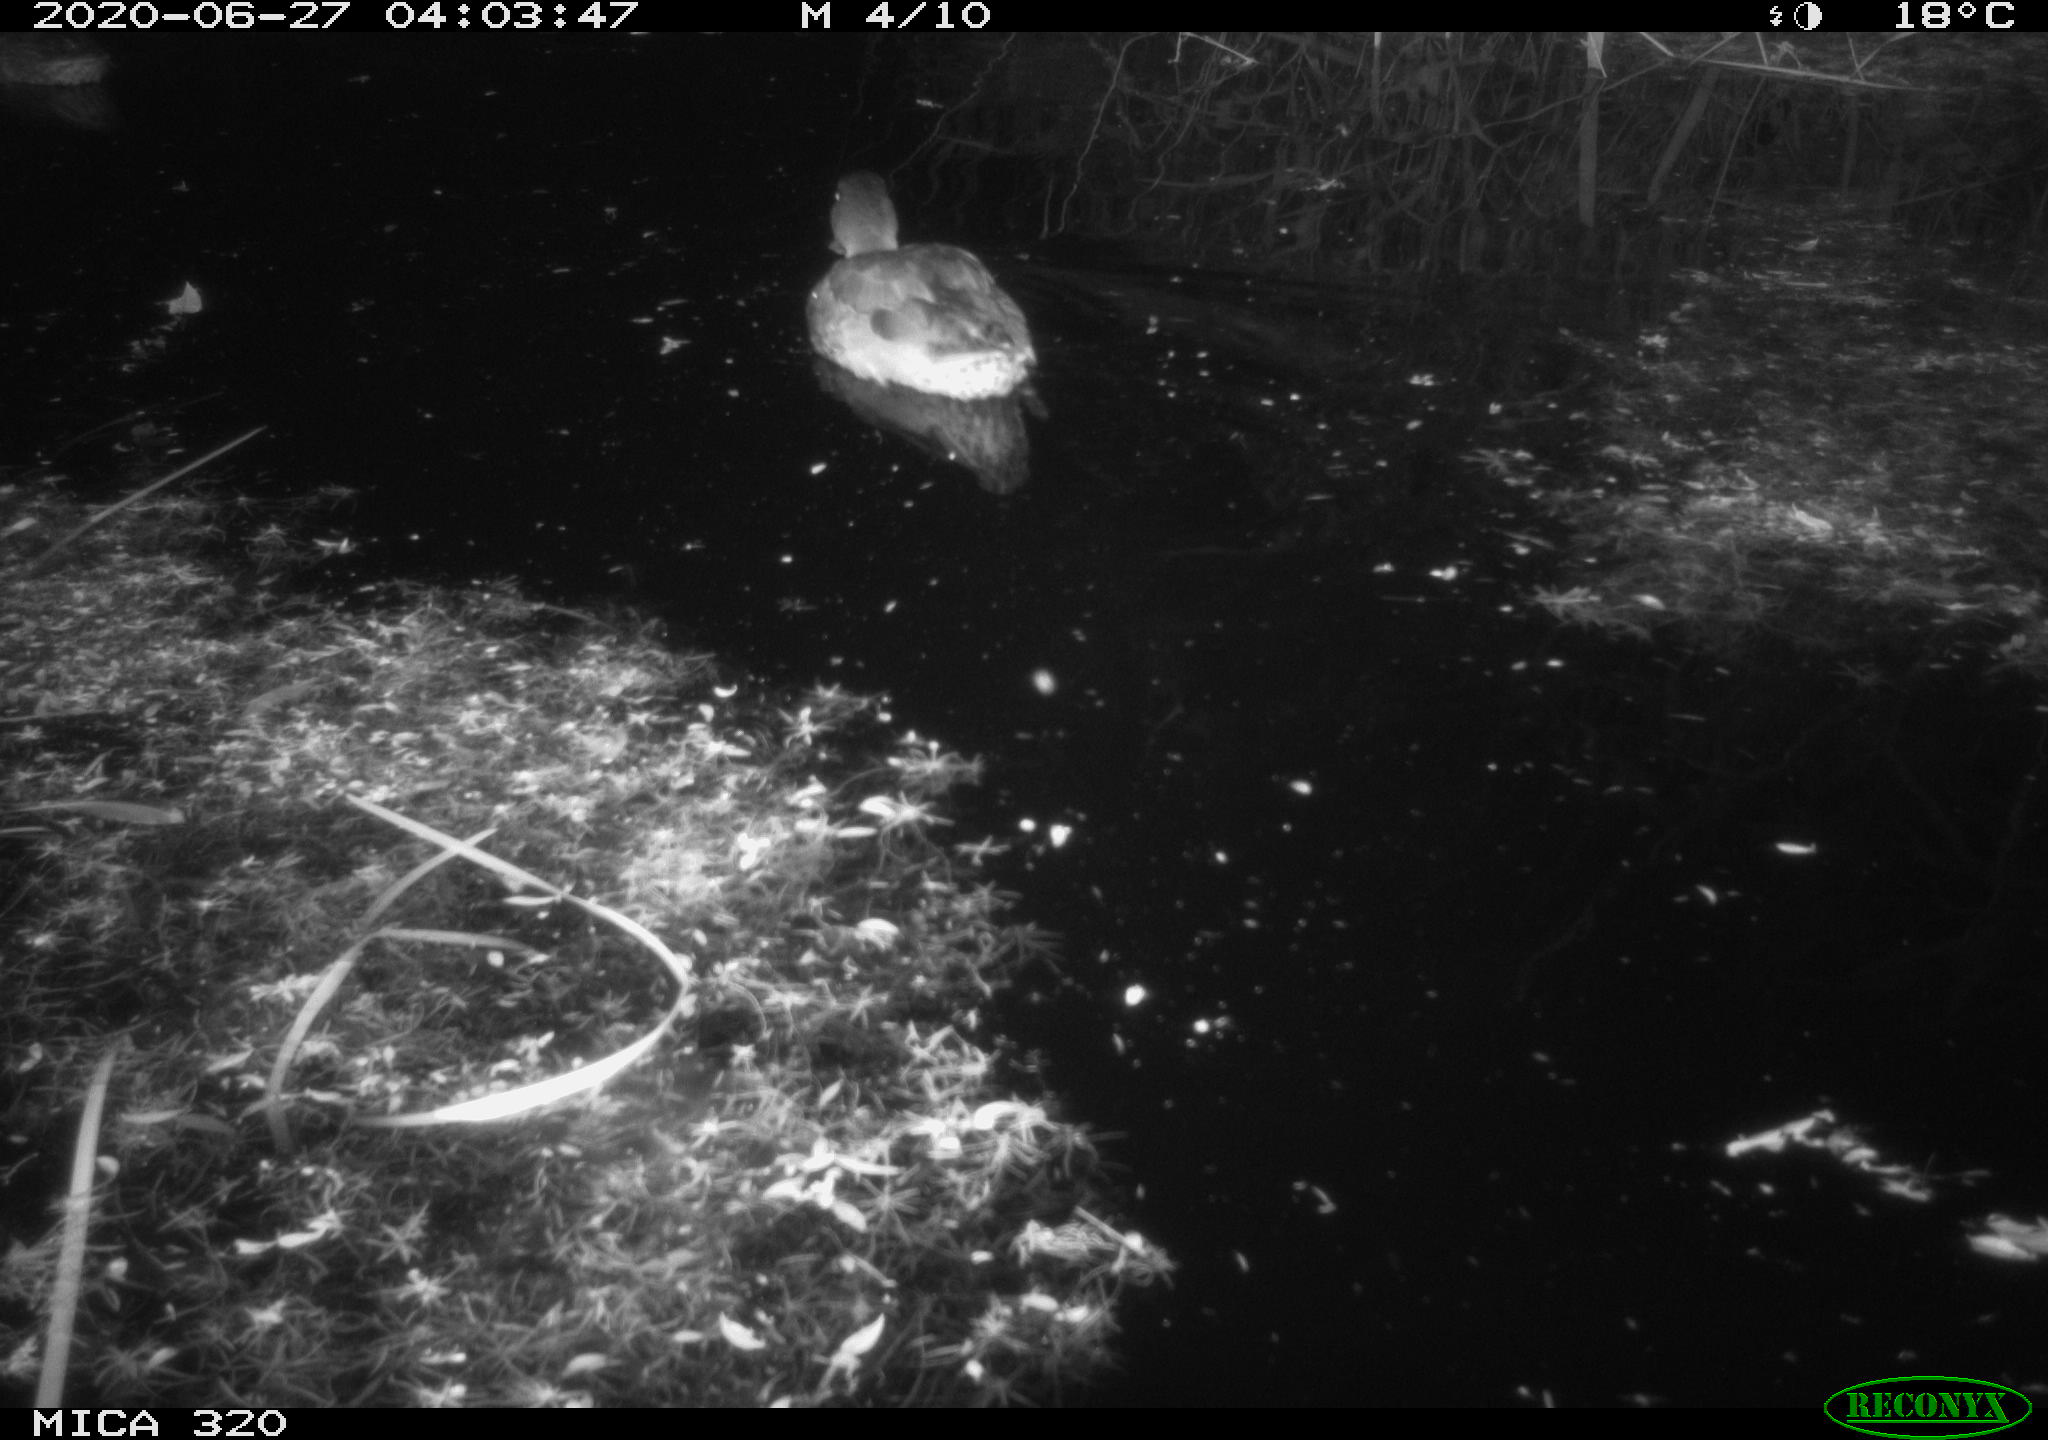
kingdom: Animalia
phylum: Chordata
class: Aves
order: Anseriformes
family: Anatidae
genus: Anas
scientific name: Anas platyrhynchos
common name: Mallard
